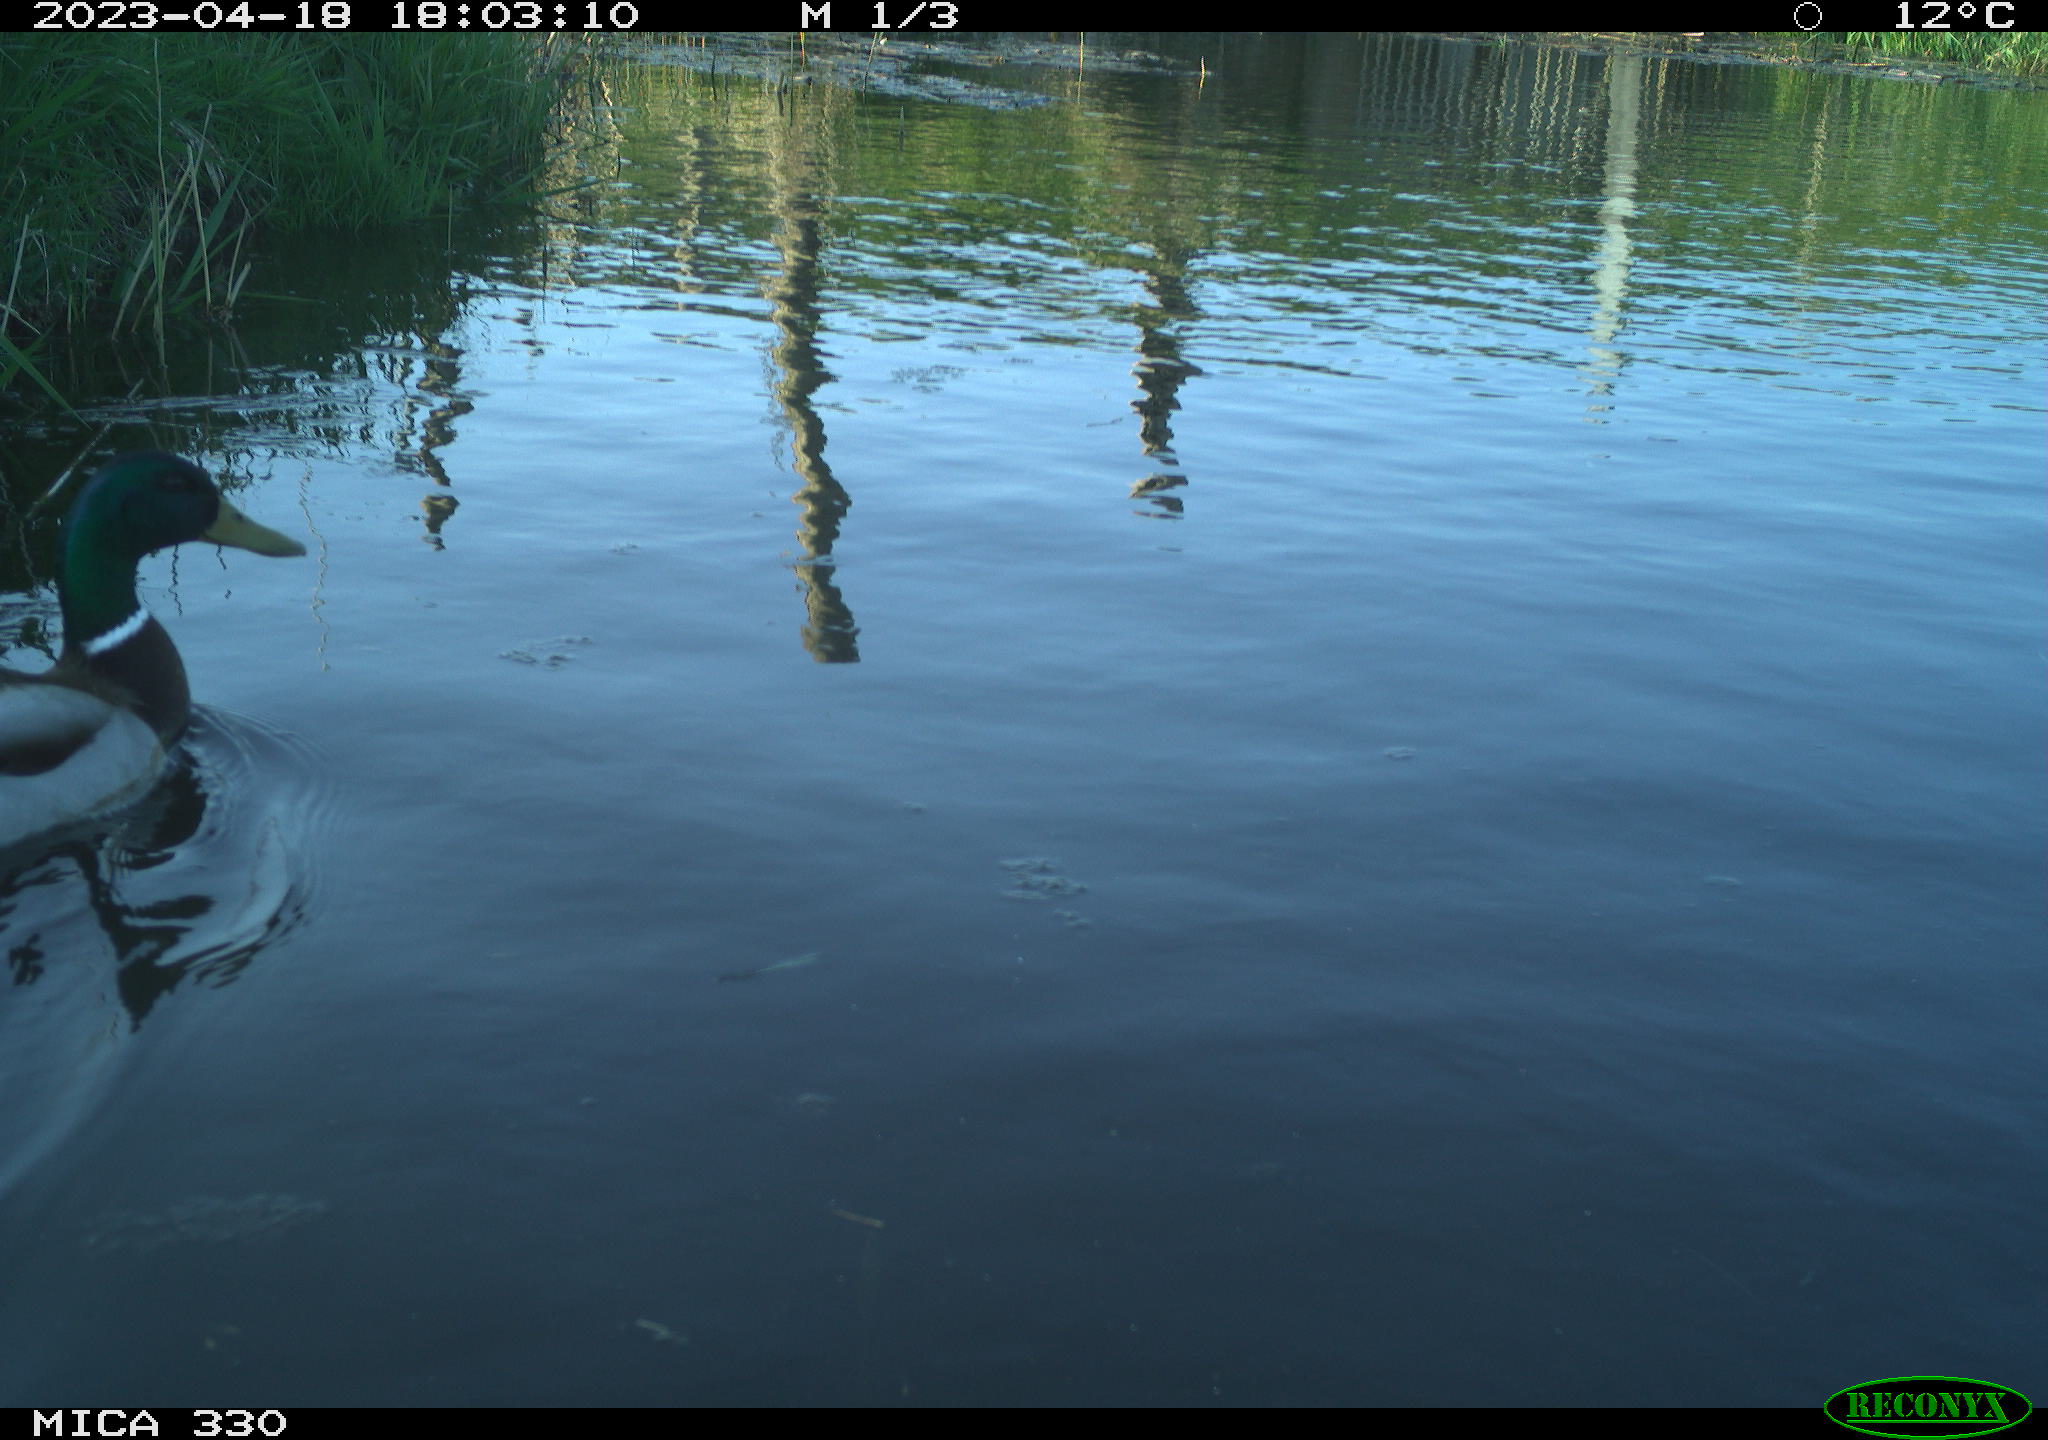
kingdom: Animalia
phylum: Chordata
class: Aves
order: Anseriformes
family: Anatidae
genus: Anas
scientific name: Anas
